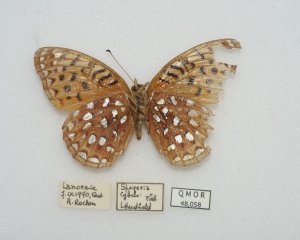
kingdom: Animalia
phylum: Arthropoda
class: Insecta
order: Lepidoptera
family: Nymphalidae
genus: Speyeria
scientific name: Speyeria aphrodite
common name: Aphrodite Fritillary
